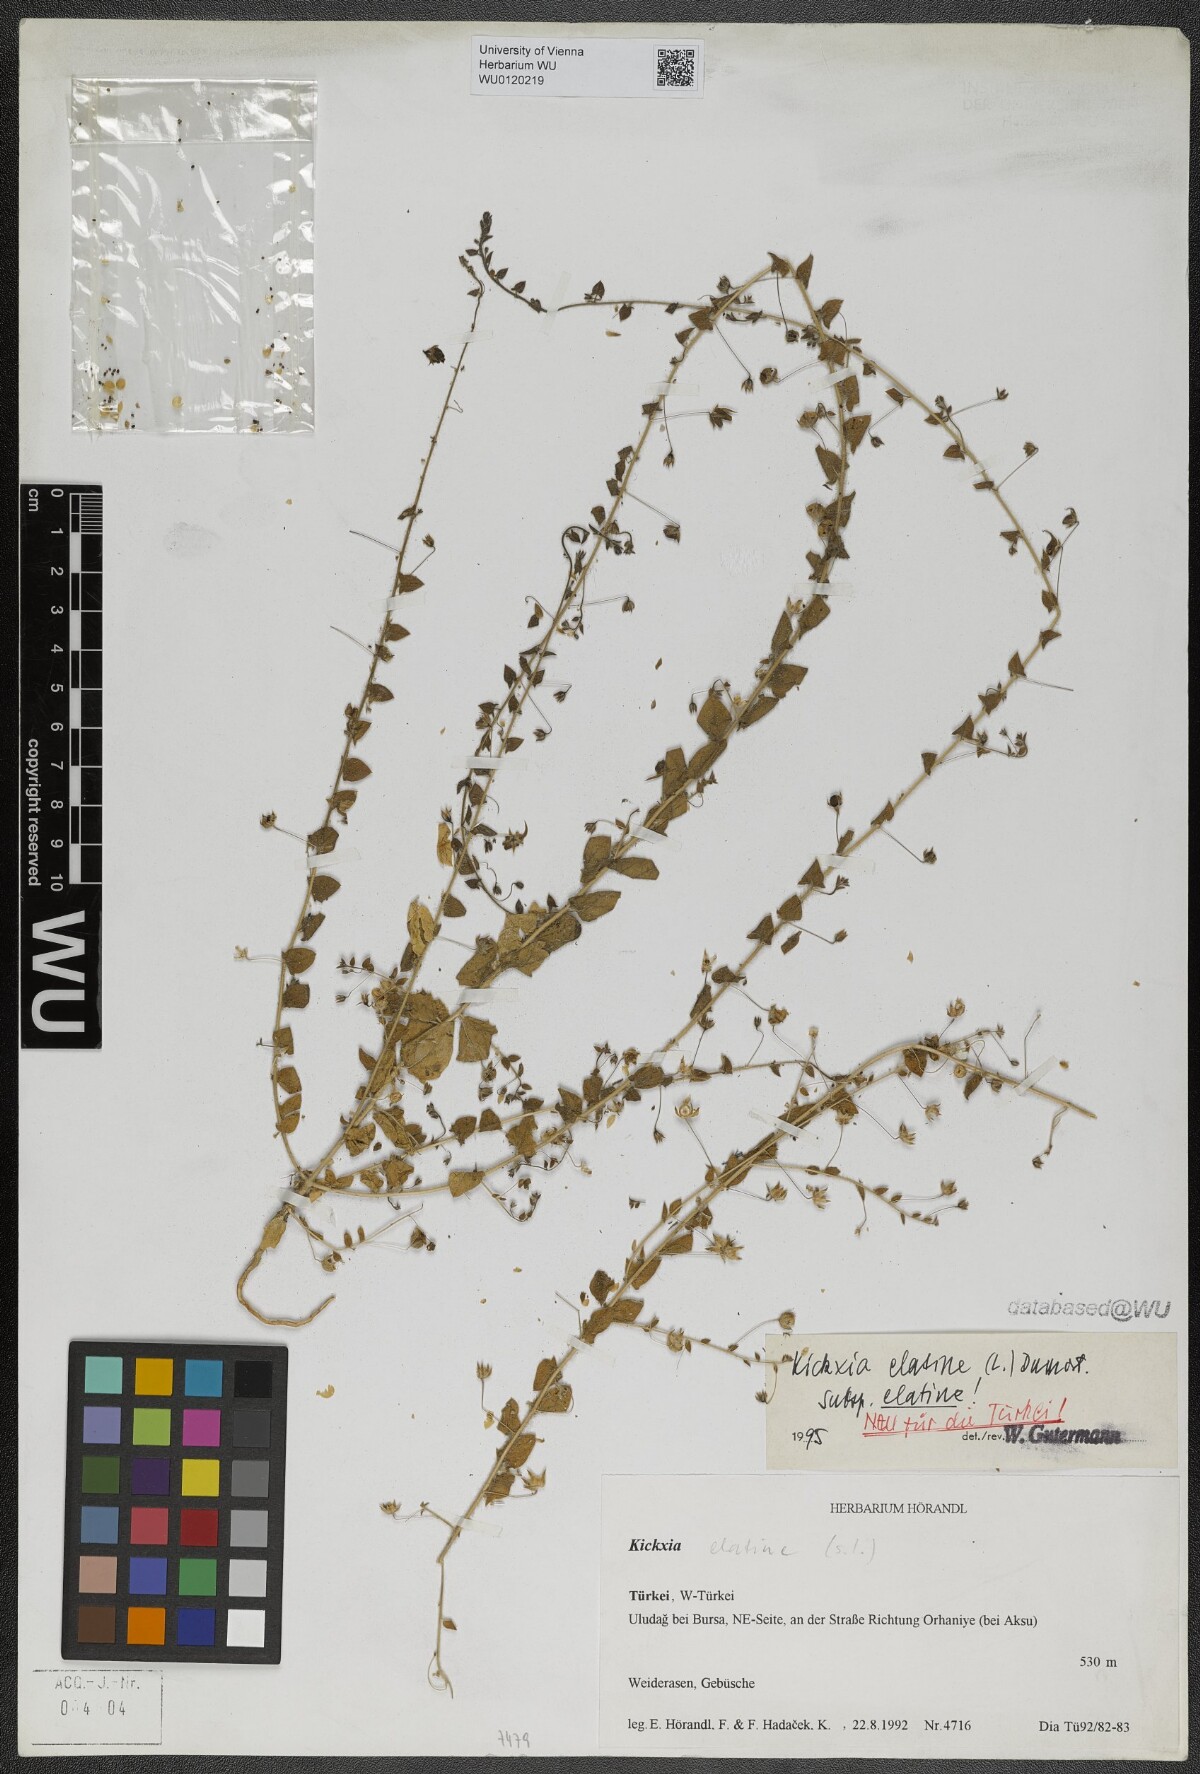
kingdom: Plantae
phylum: Tracheophyta
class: Magnoliopsida
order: Lamiales
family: Plantaginaceae
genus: Kickxia
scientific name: Kickxia elatine
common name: Sharp-leaved fluellen
